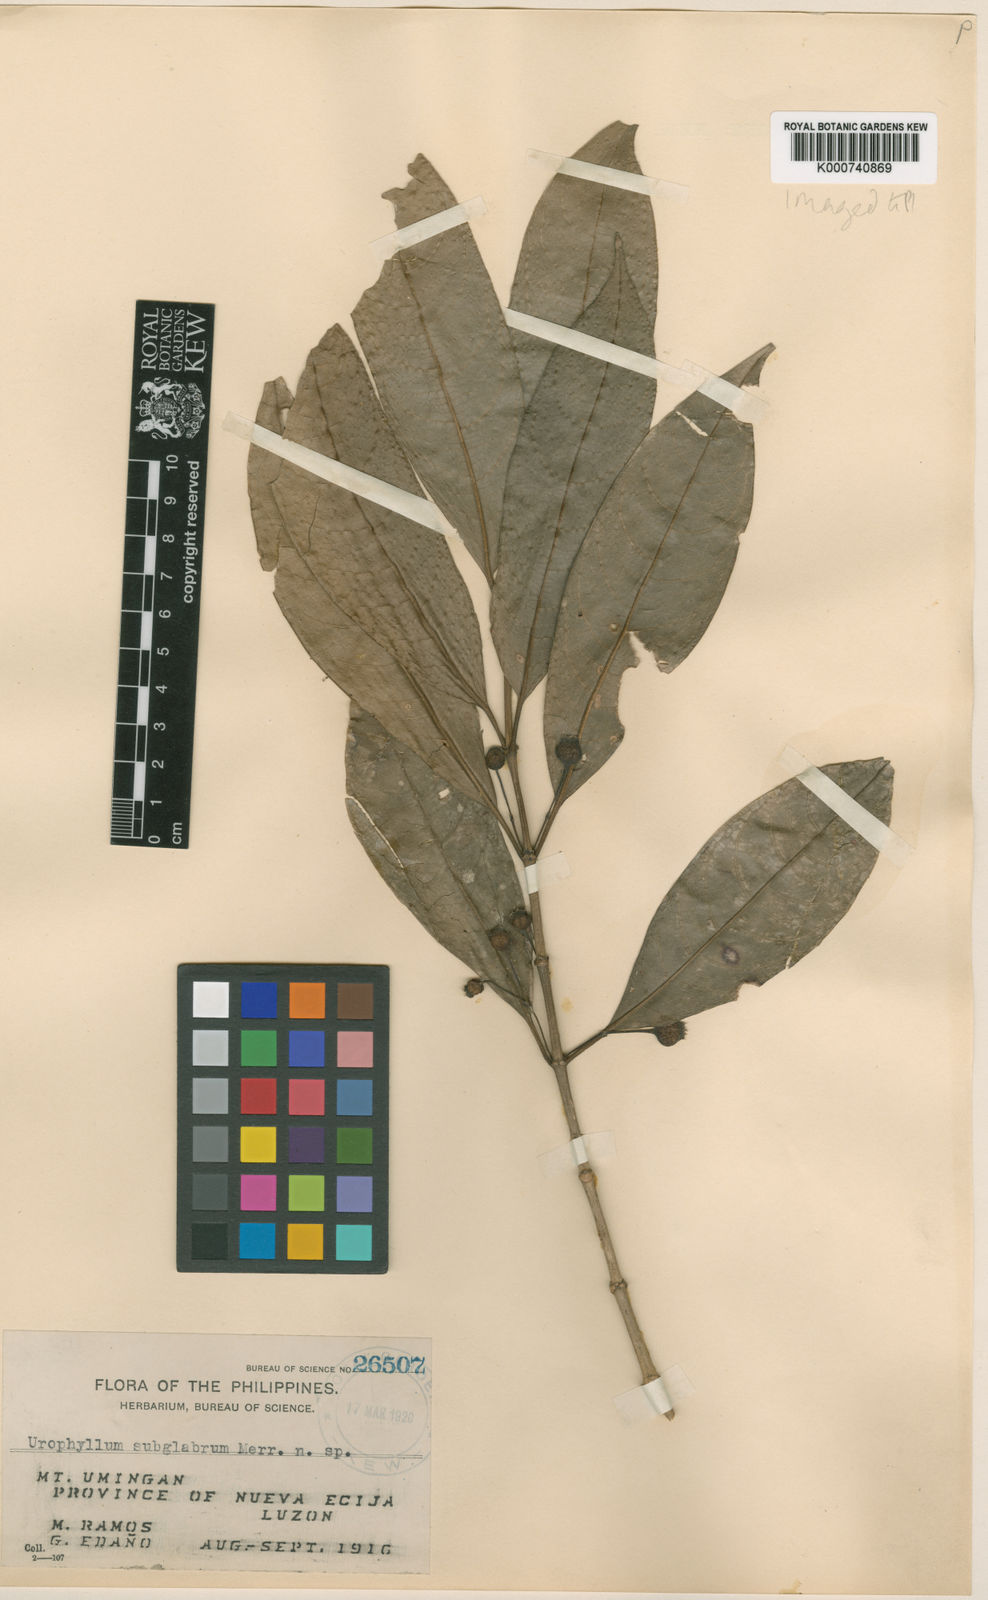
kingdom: Plantae
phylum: Tracheophyta
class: Magnoliopsida
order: Gentianales
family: Rubiaceae
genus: Urophyllum
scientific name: Urophyllum subglabrum
